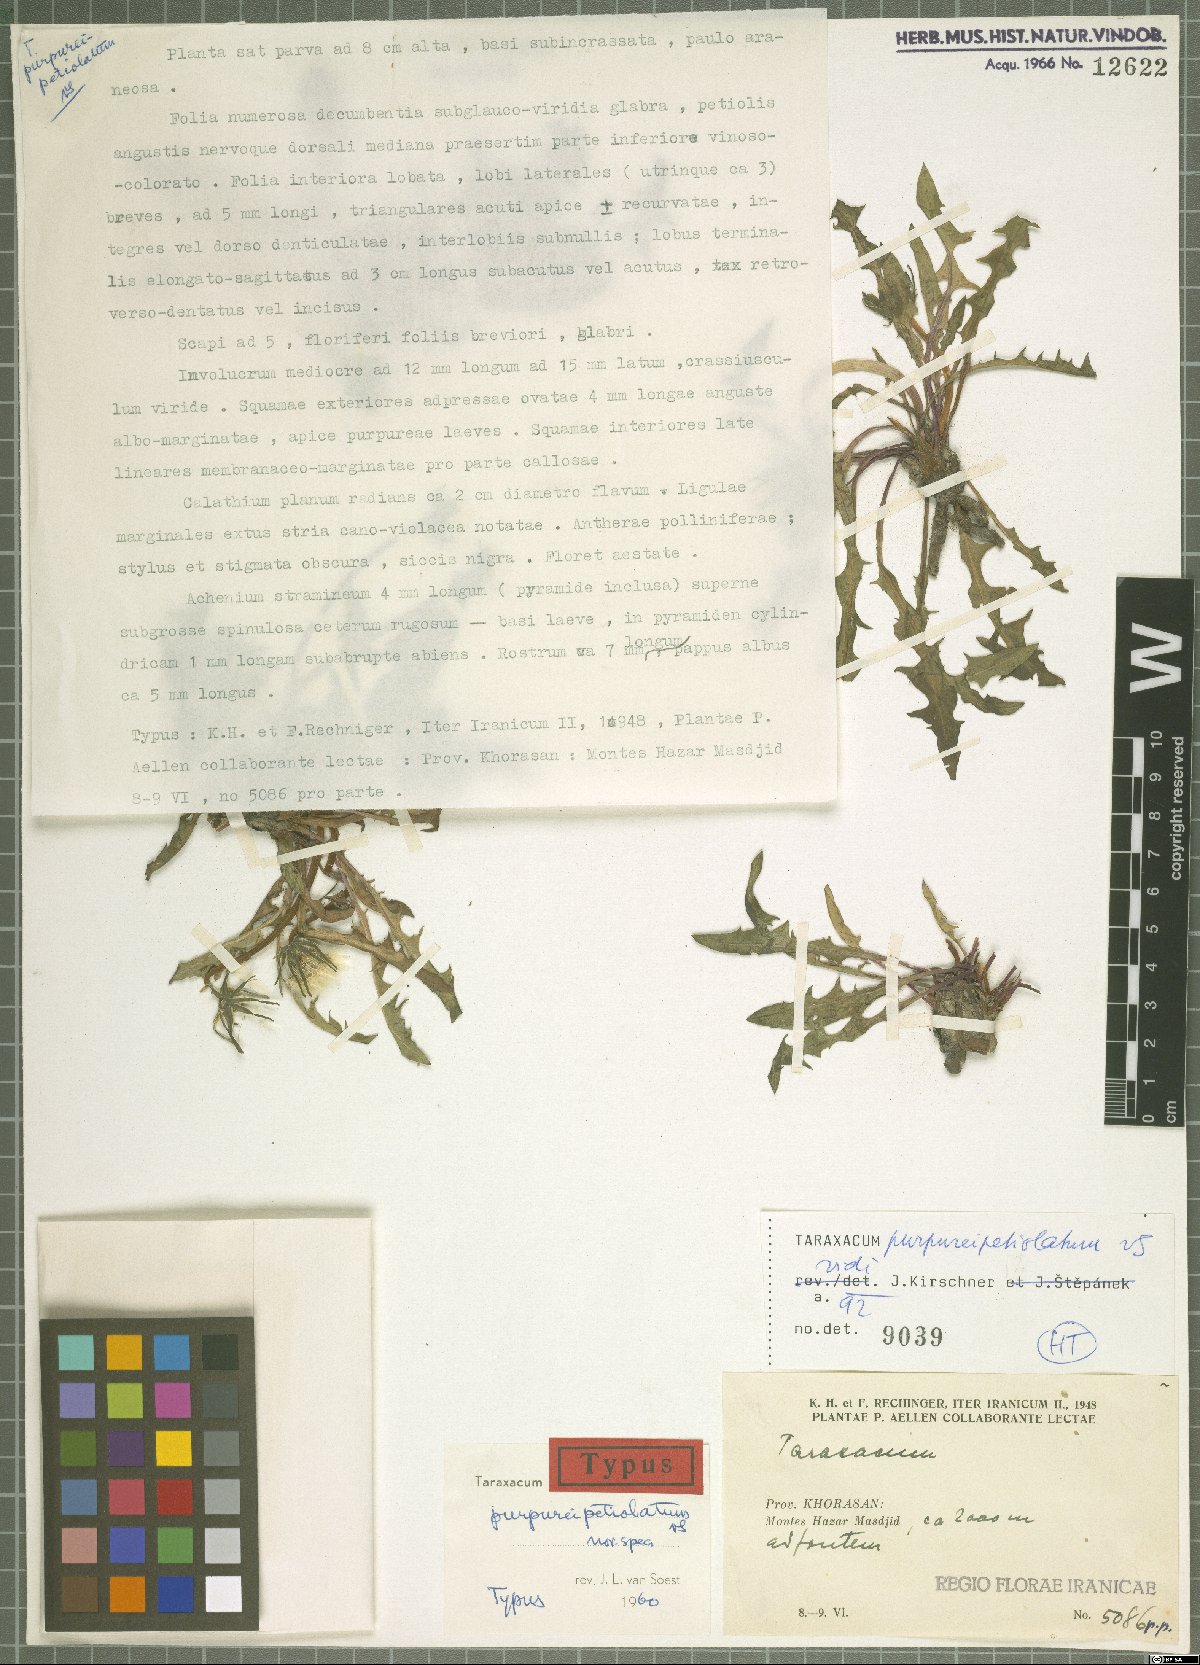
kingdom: Plantae
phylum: Tracheophyta
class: Magnoliopsida
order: Asterales
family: Asteraceae
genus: Taraxacum
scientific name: Taraxacum purpureipetiolatum
